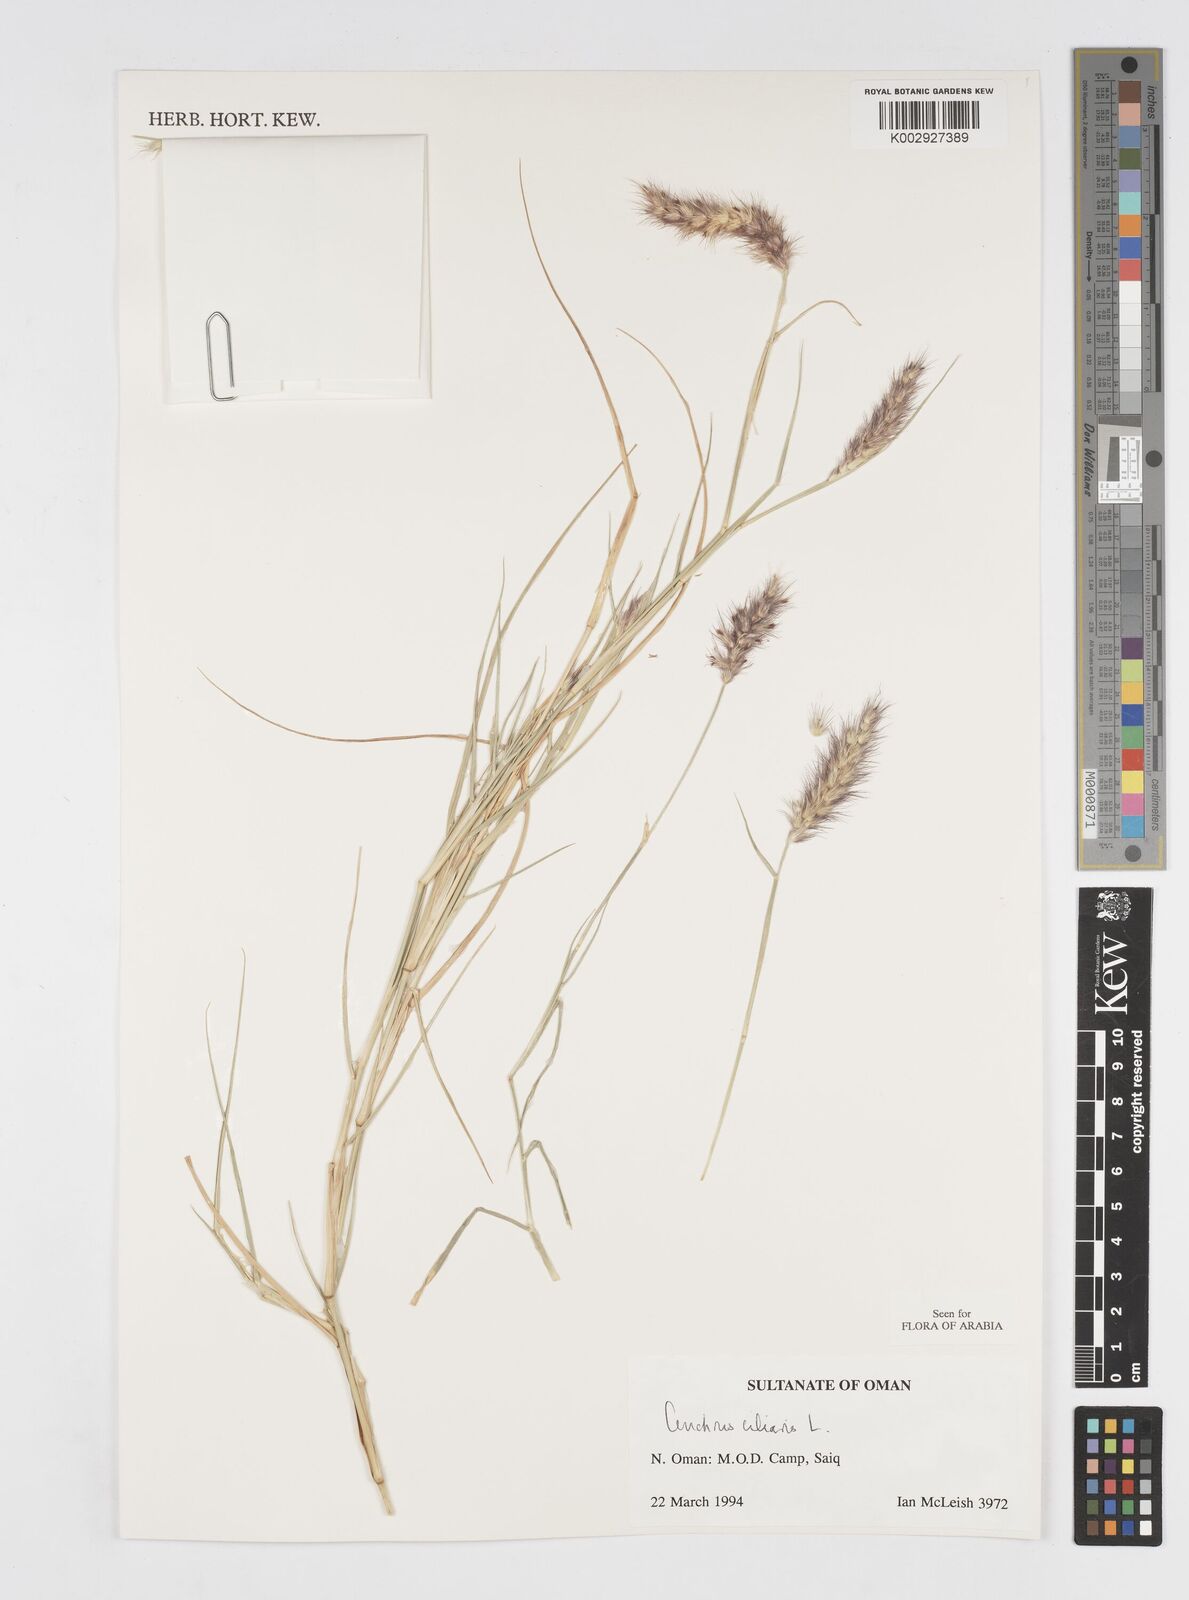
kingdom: Plantae
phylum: Tracheophyta
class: Liliopsida
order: Poales
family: Poaceae
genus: Cenchrus
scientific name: Cenchrus ciliaris
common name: Buffelgrass
